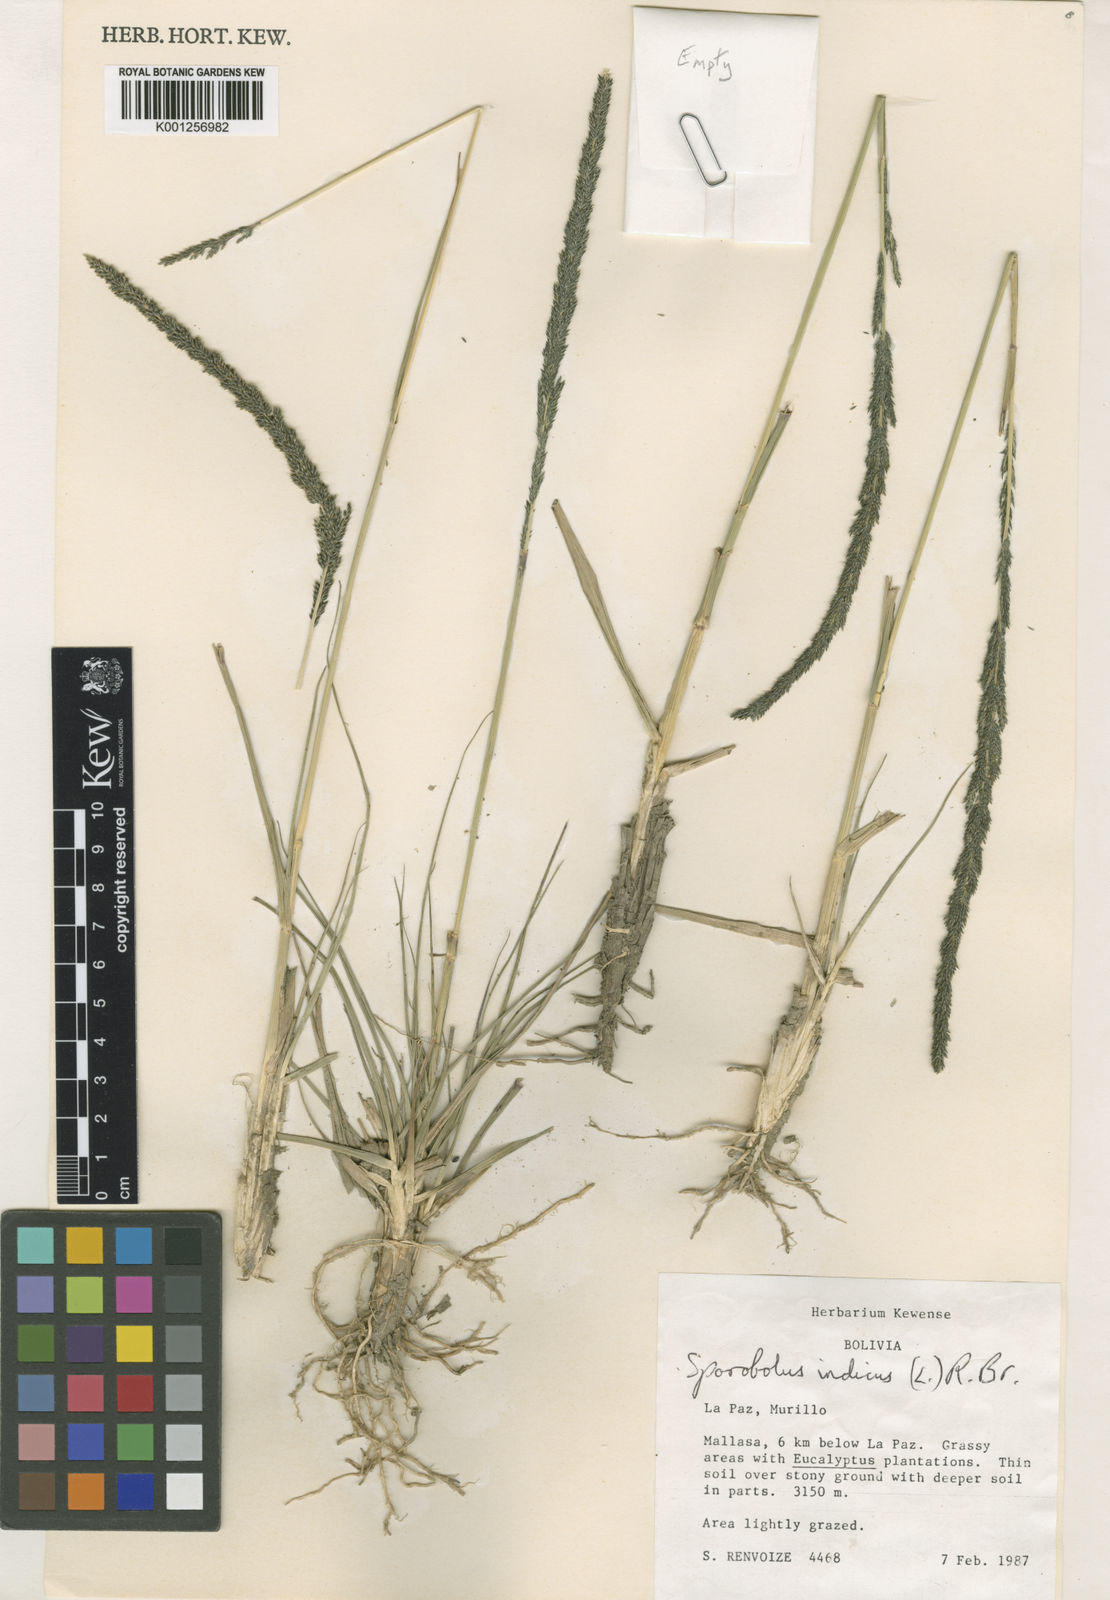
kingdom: Plantae
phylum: Tracheophyta
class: Liliopsida
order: Poales
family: Poaceae
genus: Sporobolus
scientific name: Sporobolus indicus
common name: Smut grass
